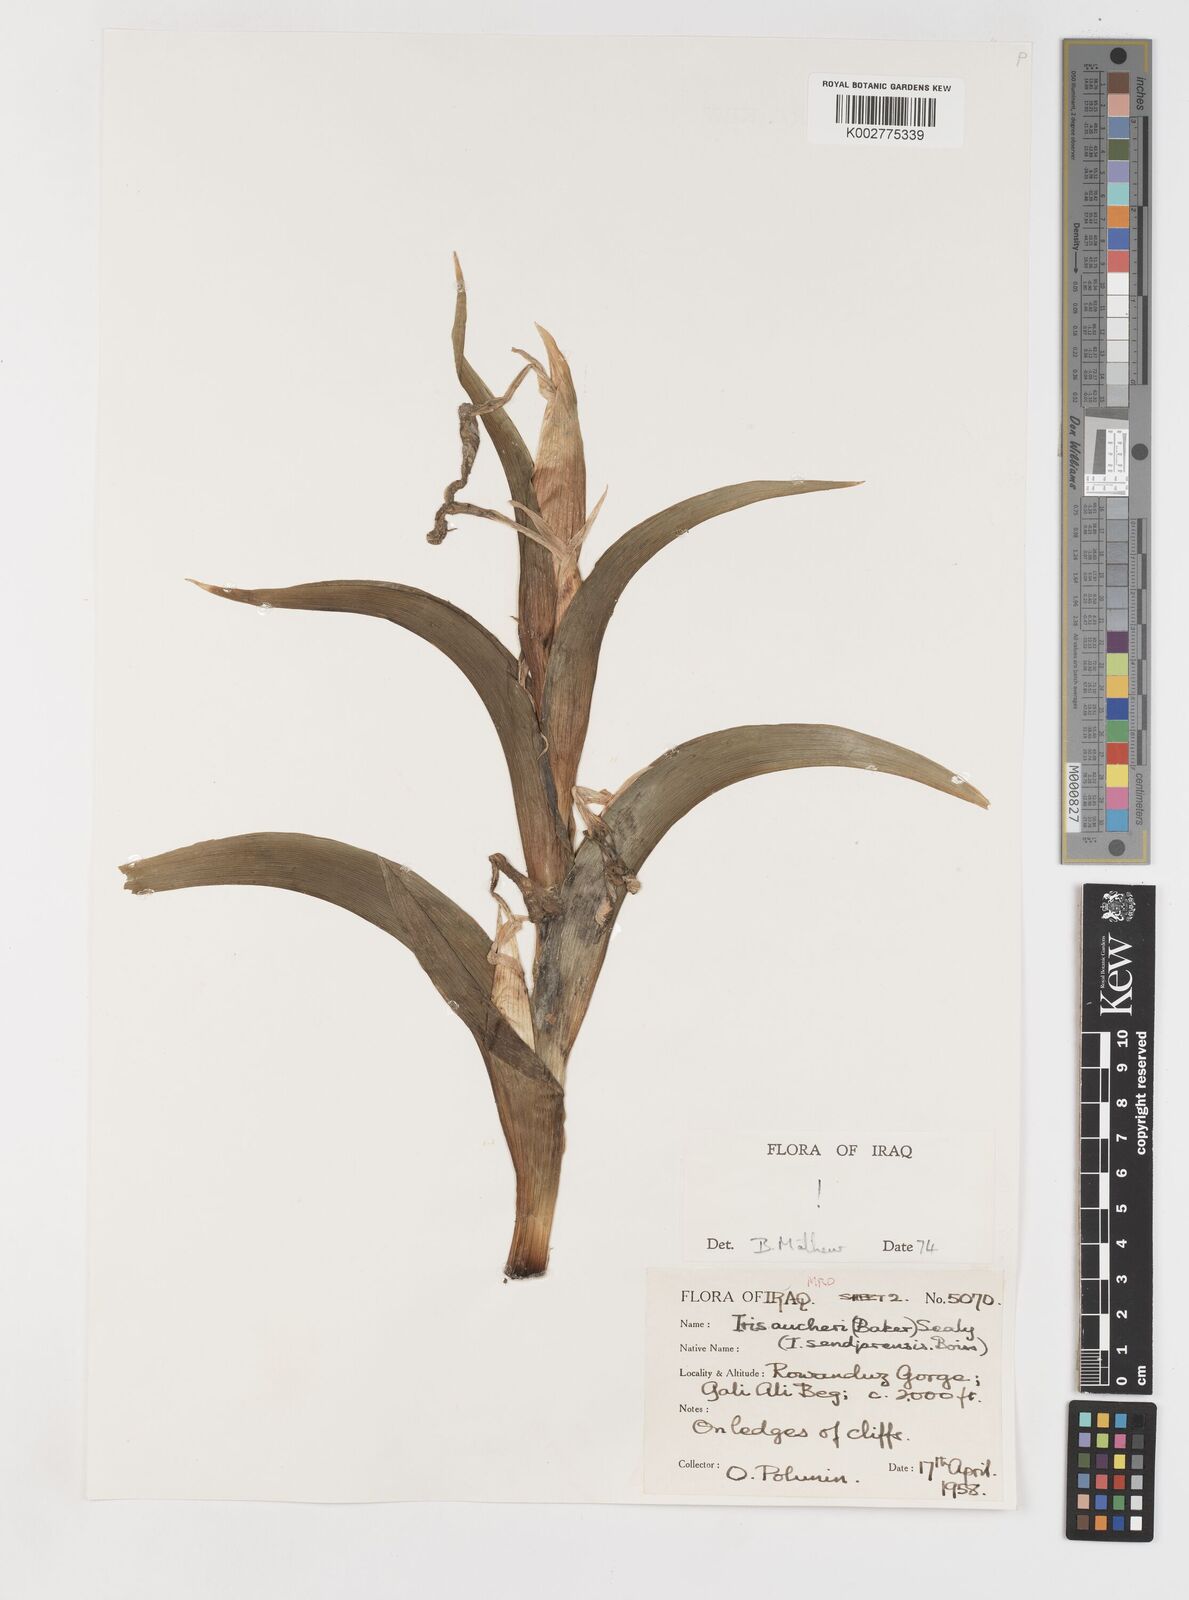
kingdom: Plantae
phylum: Tracheophyta
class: Liliopsida
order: Asparagales
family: Iridaceae
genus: Iris
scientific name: Iris aucheri
